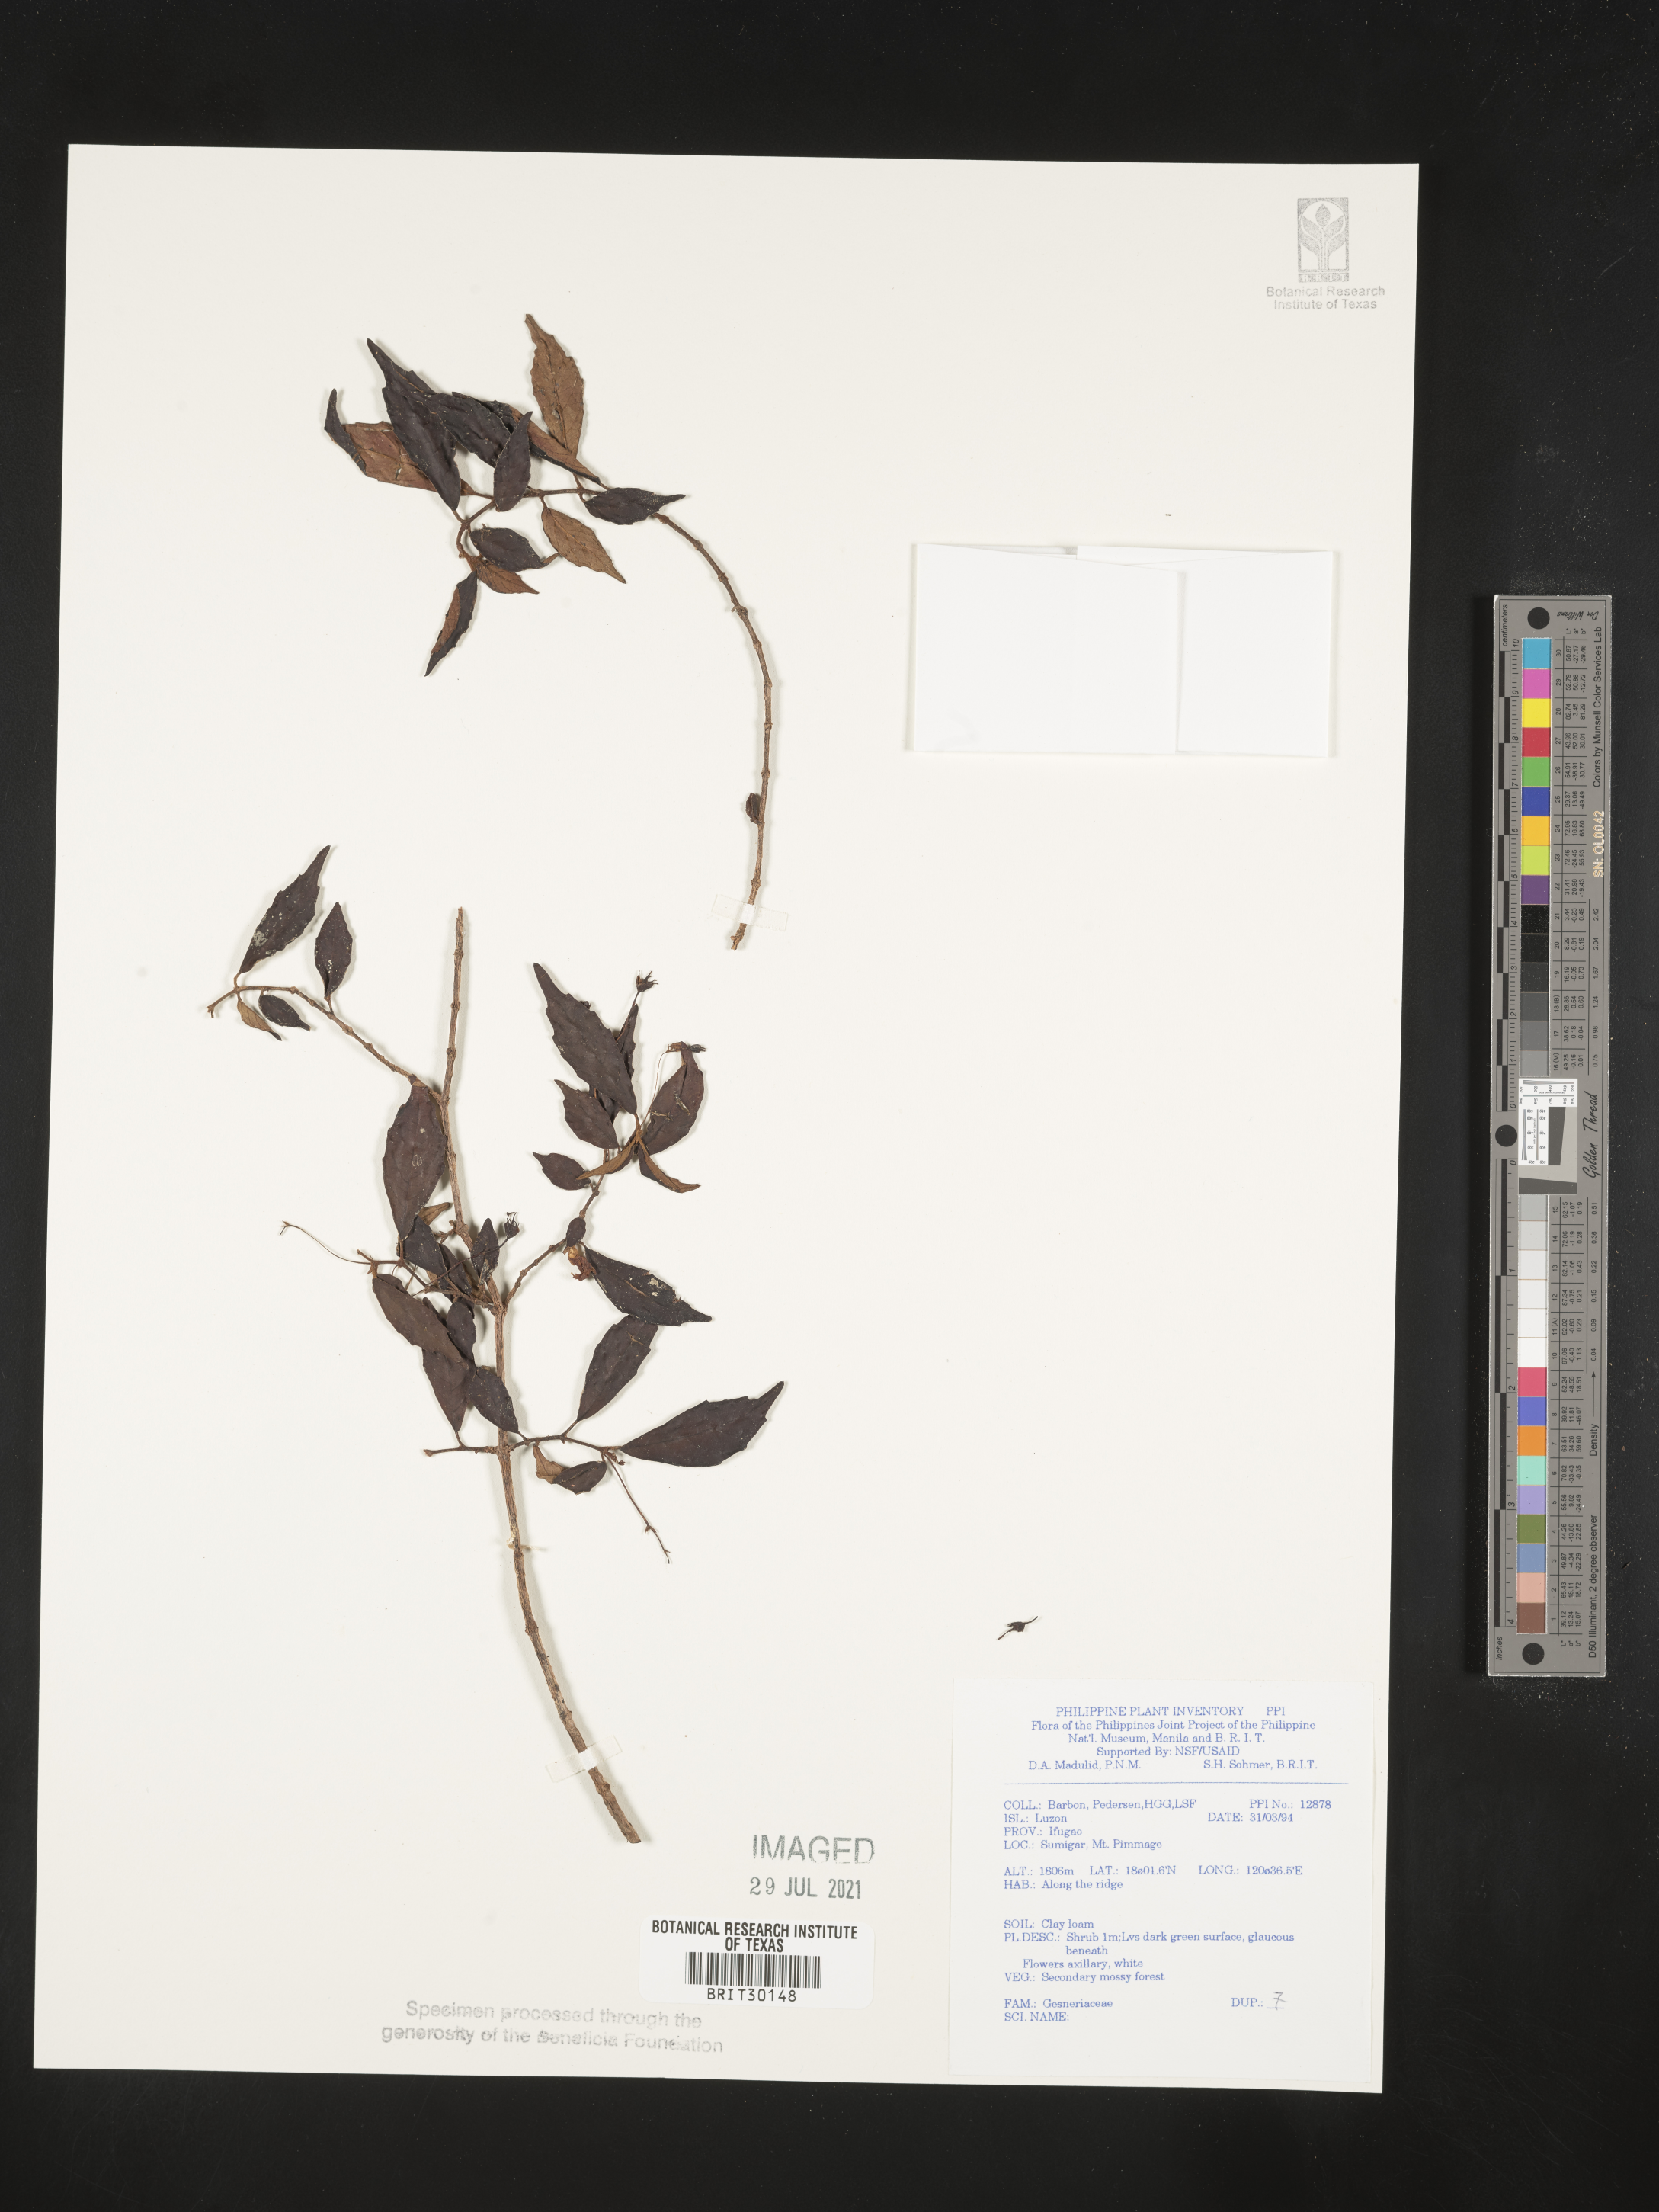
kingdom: Plantae
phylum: Tracheophyta
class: Magnoliopsida
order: Lamiales
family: Gesneriaceae
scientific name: Gesneriaceae
